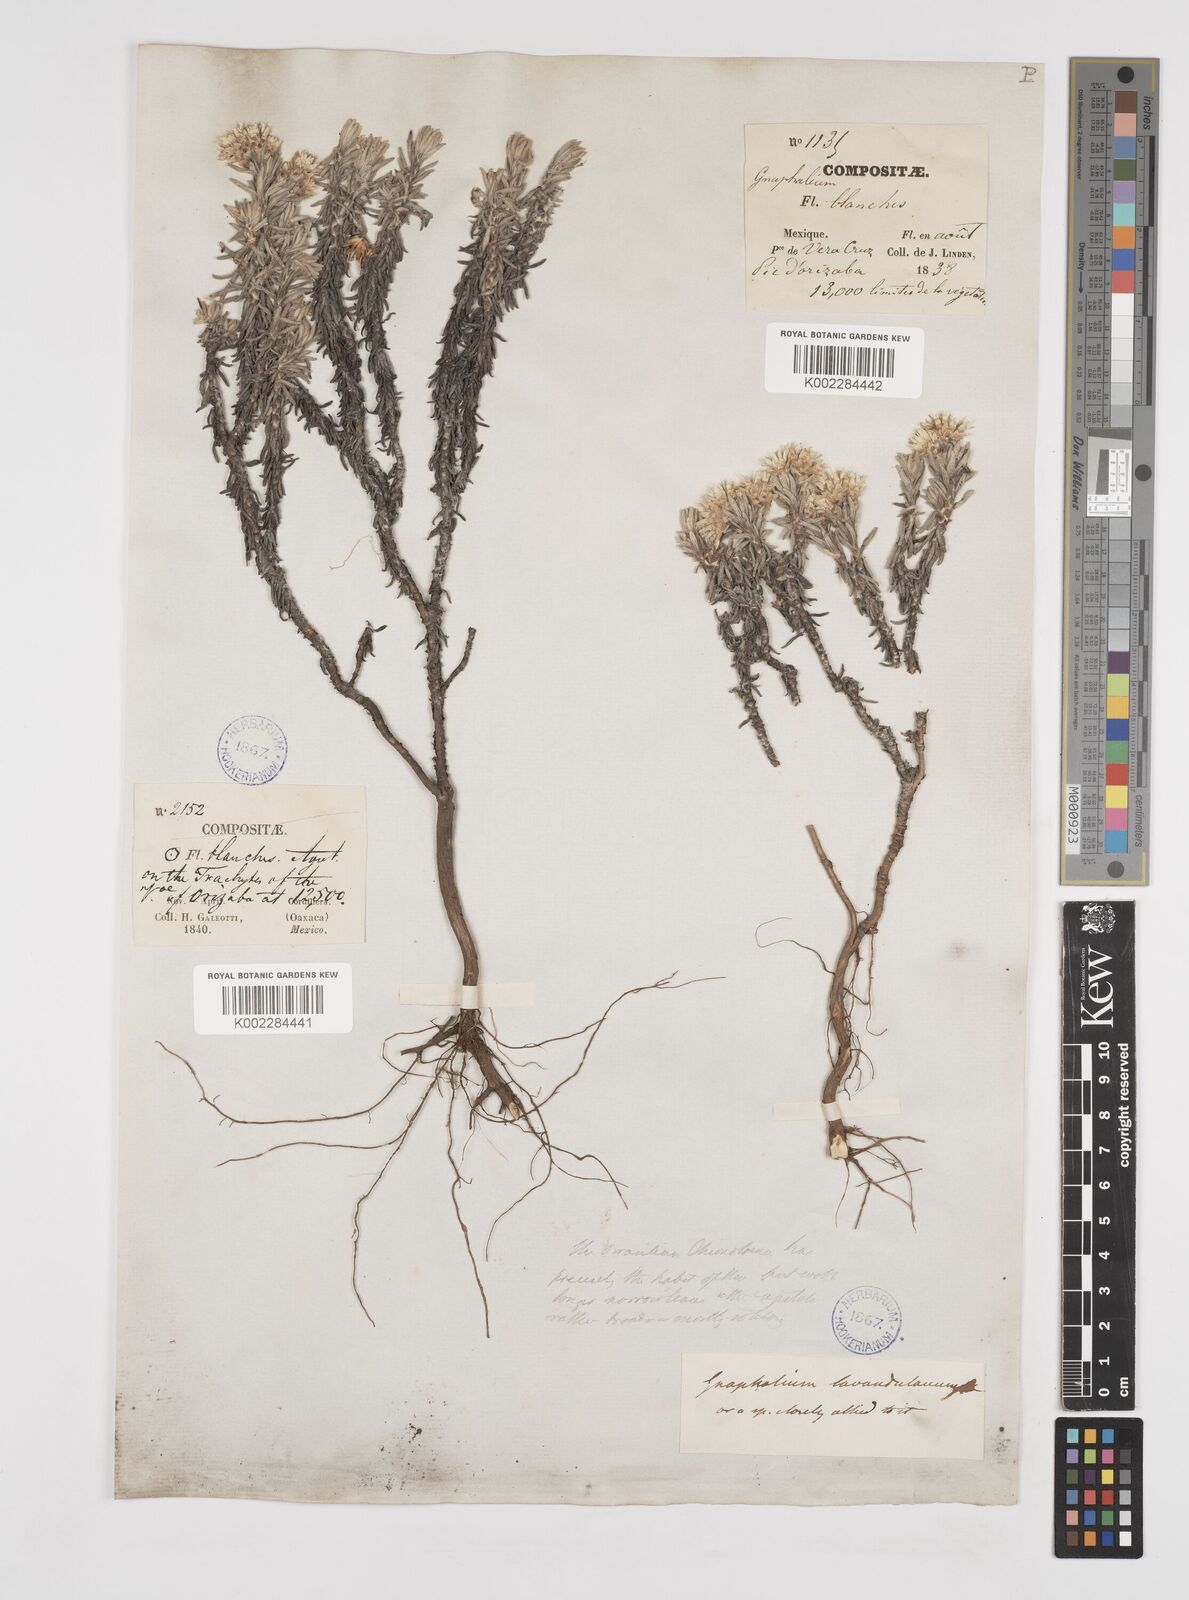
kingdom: Plantae
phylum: Tracheophyta
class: Magnoliopsida
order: Asterales
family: Asteraceae
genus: Gnaphaliothamnus
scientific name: Gnaphaliothamnus lavandulifolius
